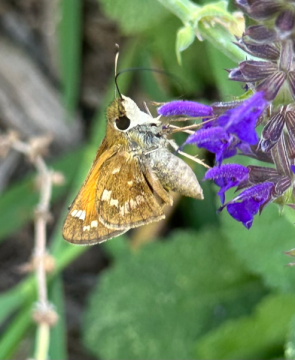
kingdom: Animalia
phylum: Arthropoda
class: Insecta
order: Lepidoptera
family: Hesperiidae
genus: Atalopedes
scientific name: Atalopedes campestris
